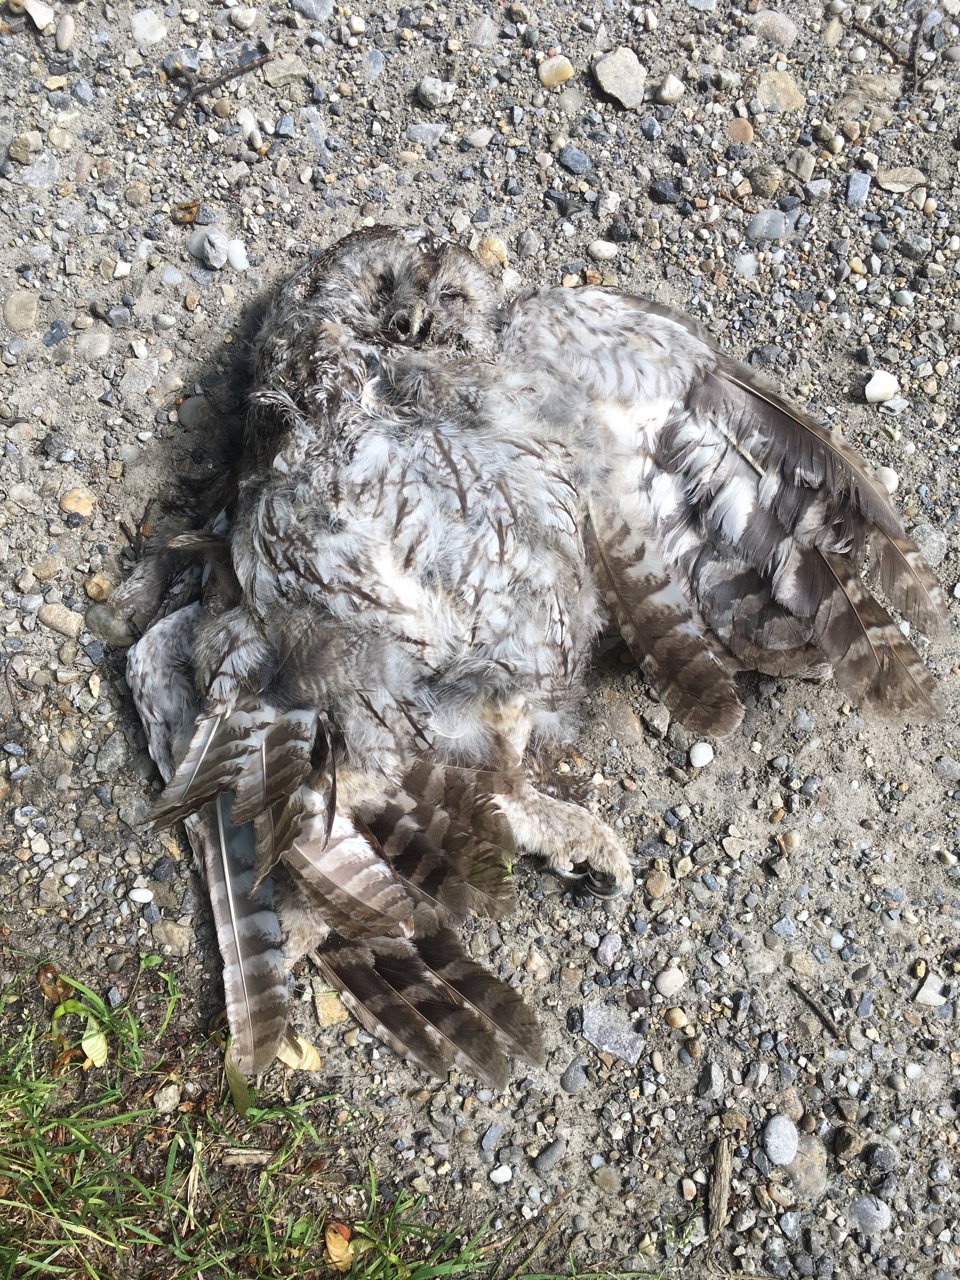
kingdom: Animalia
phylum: Chordata
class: Aves
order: Strigiformes
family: Strigidae
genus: Strix
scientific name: Strix aluco
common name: Tawny owl
